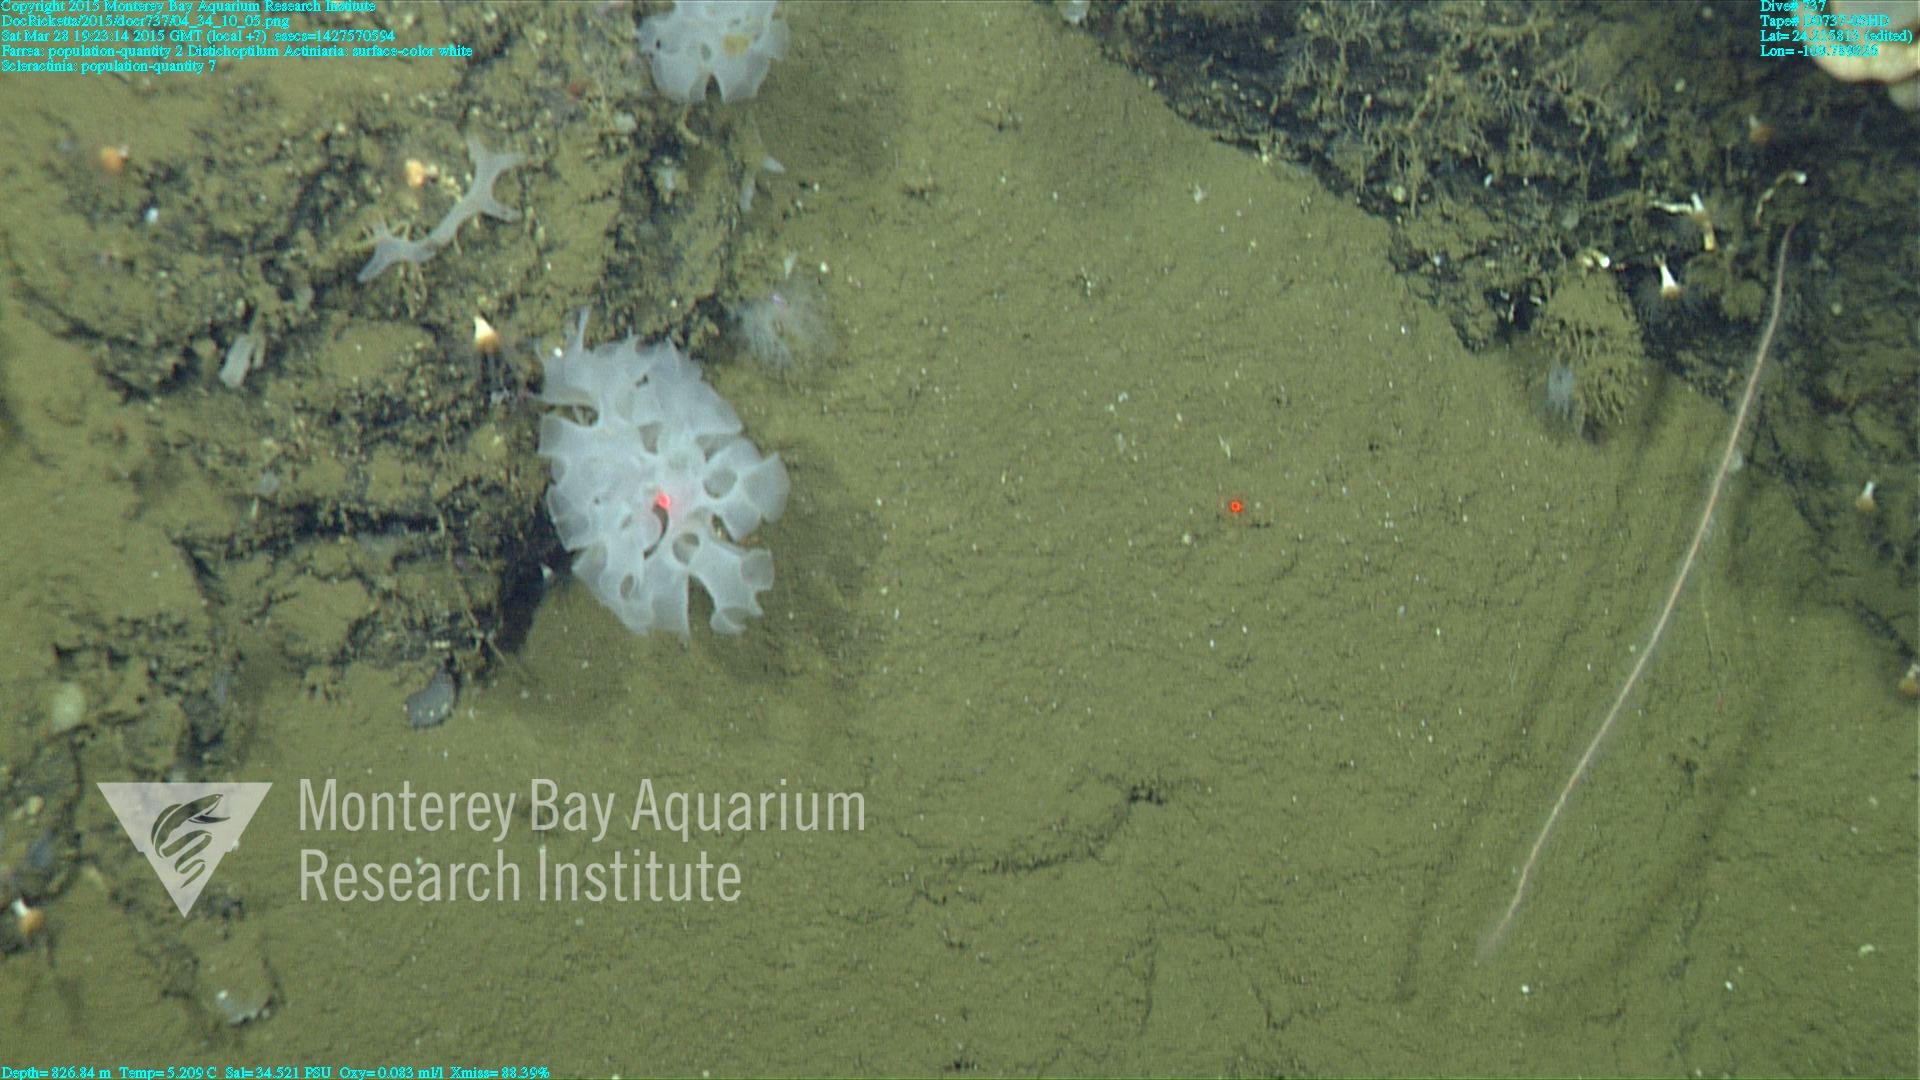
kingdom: Animalia
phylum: Cnidaria
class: Anthozoa
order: Scleractinia
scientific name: Scleractinia
